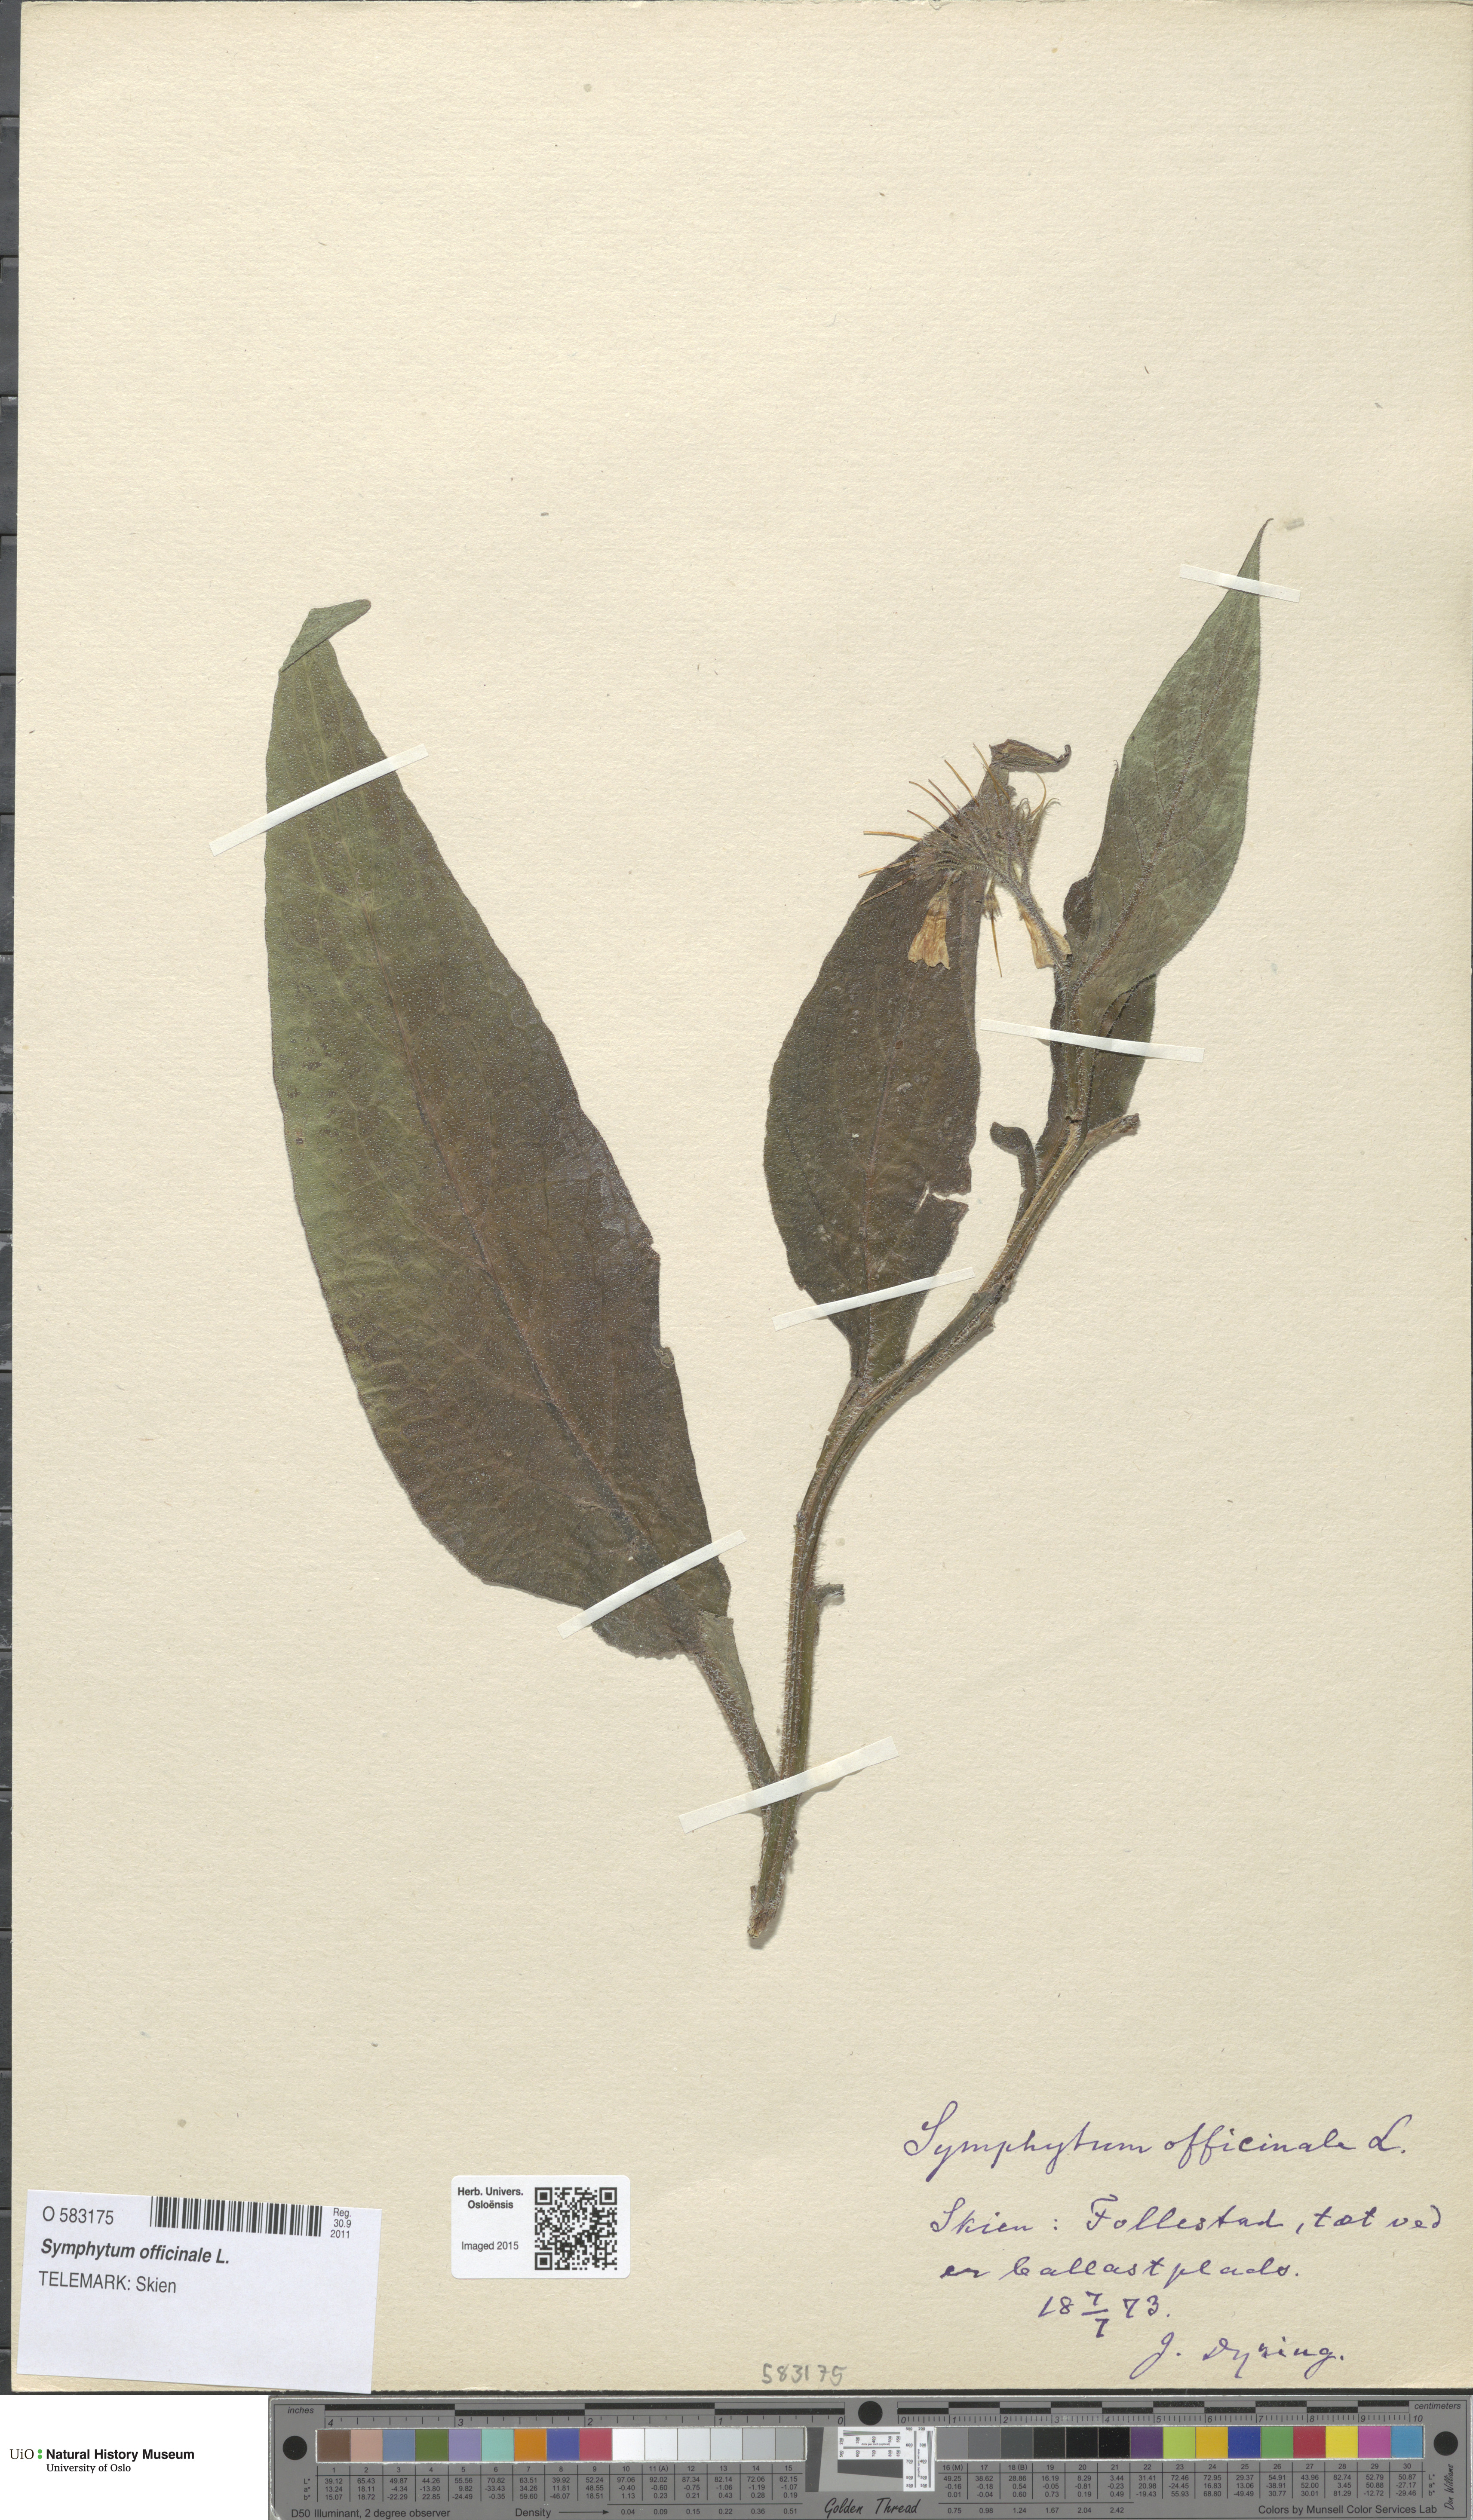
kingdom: Plantae
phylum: Tracheophyta
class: Magnoliopsida
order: Boraginales
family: Boraginaceae
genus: Symphytum
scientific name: Symphytum officinale
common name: Common comfrey
